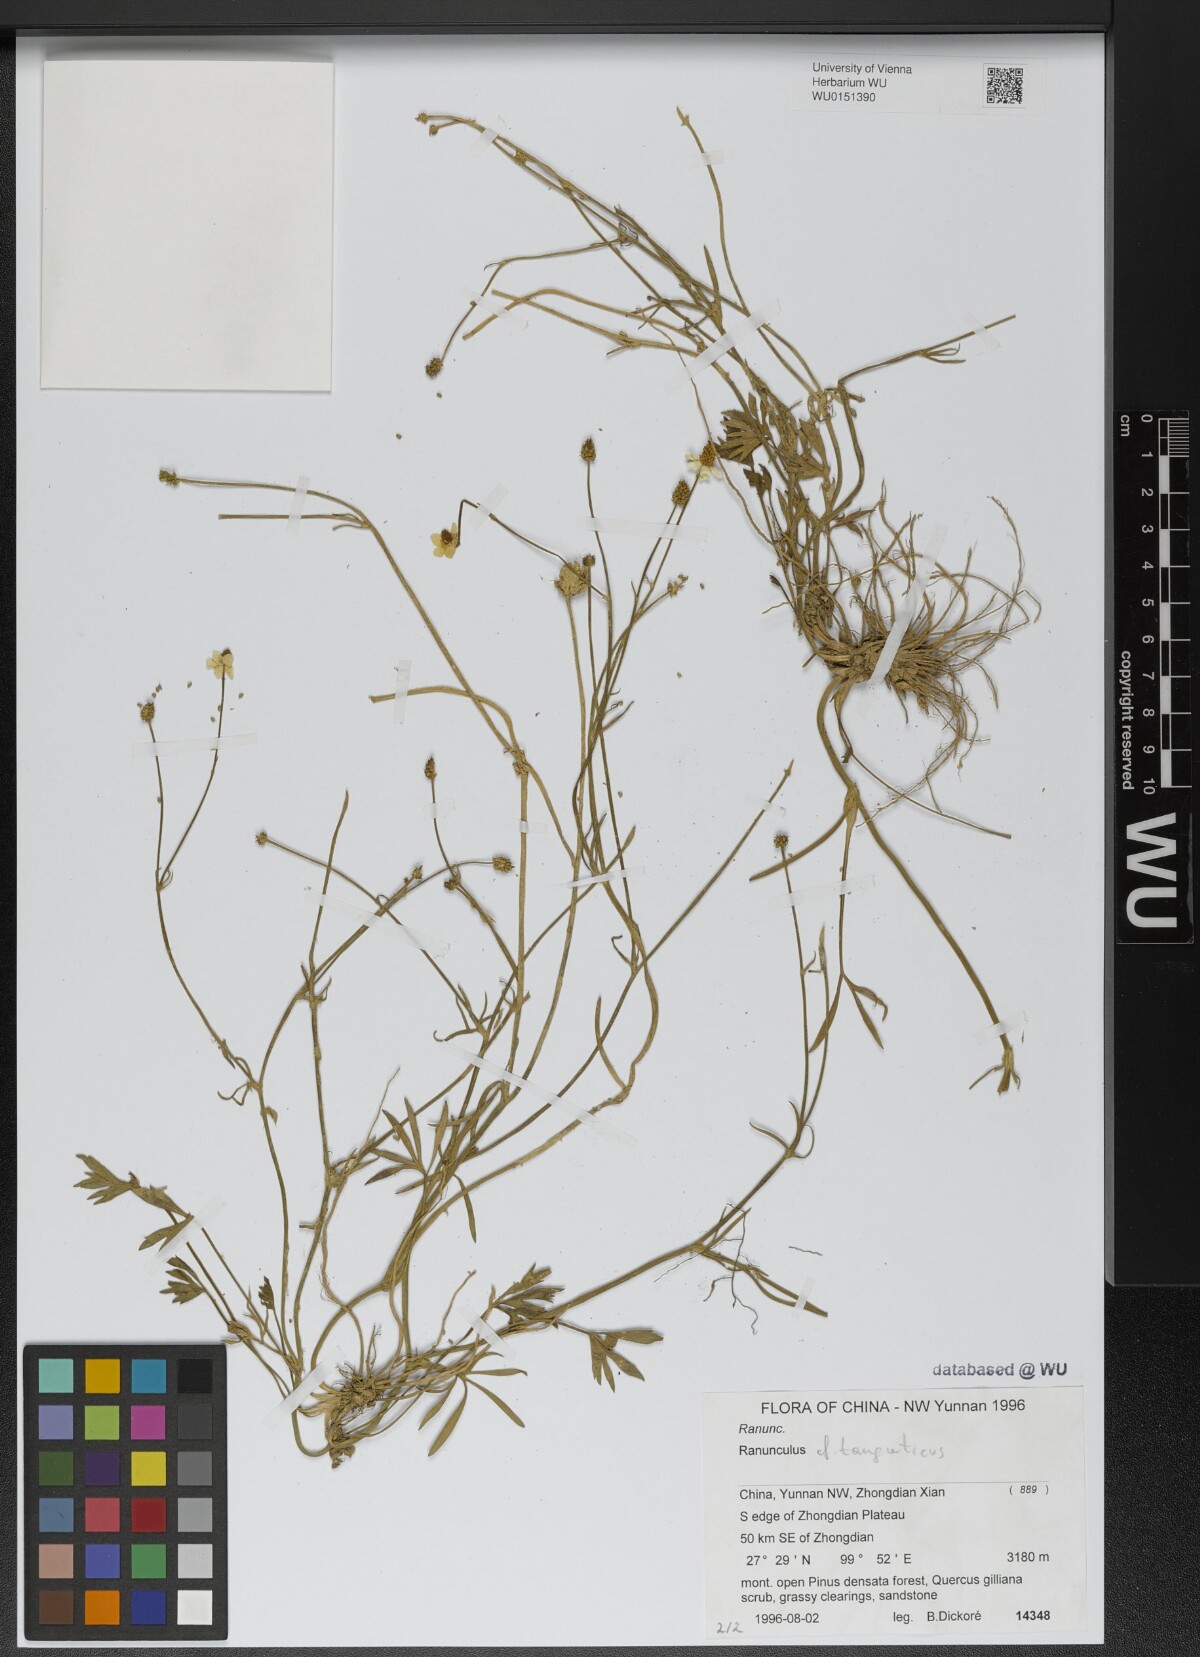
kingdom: Plantae
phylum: Tracheophyta
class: Magnoliopsida
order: Ranunculales
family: Ranunculaceae
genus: Ranunculus
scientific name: Ranunculus brotherusii
